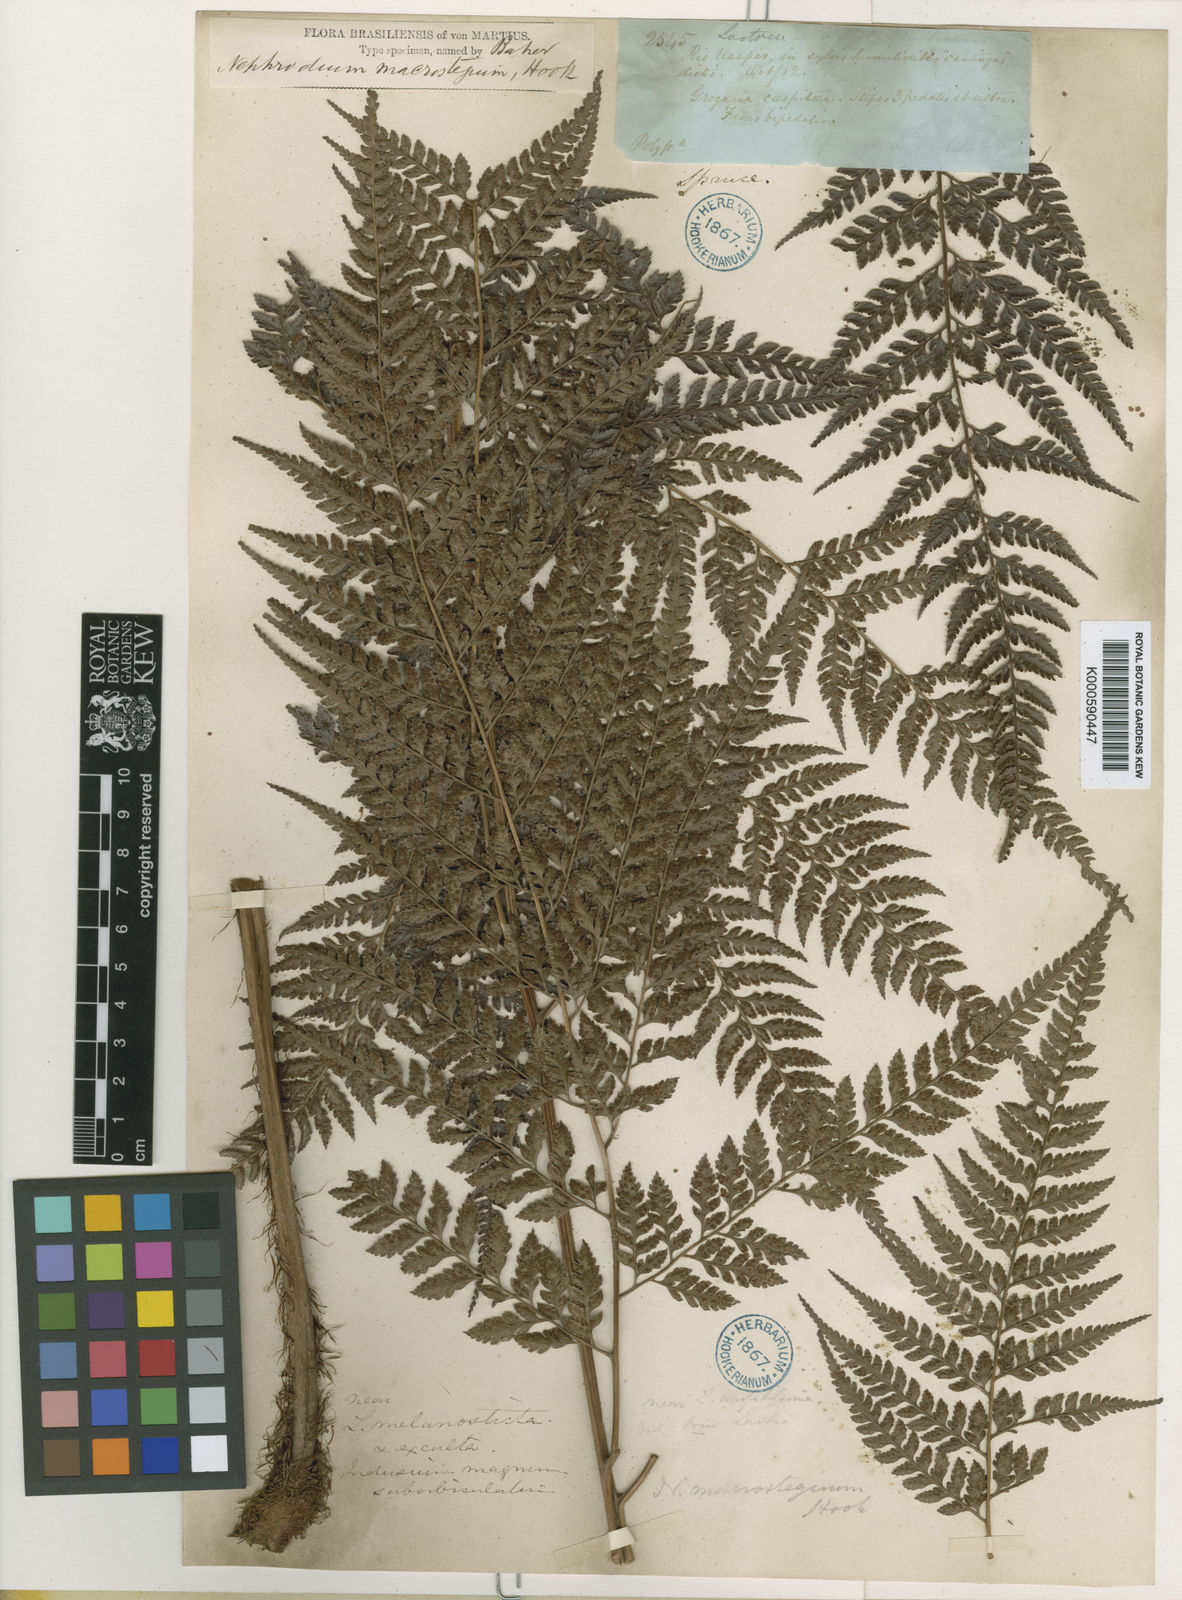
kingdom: Plantae
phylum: Tracheophyta
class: Polypodiopsida
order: Polypodiales
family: Dryopteridaceae
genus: Olfersia
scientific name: Olfersia macrostegia
